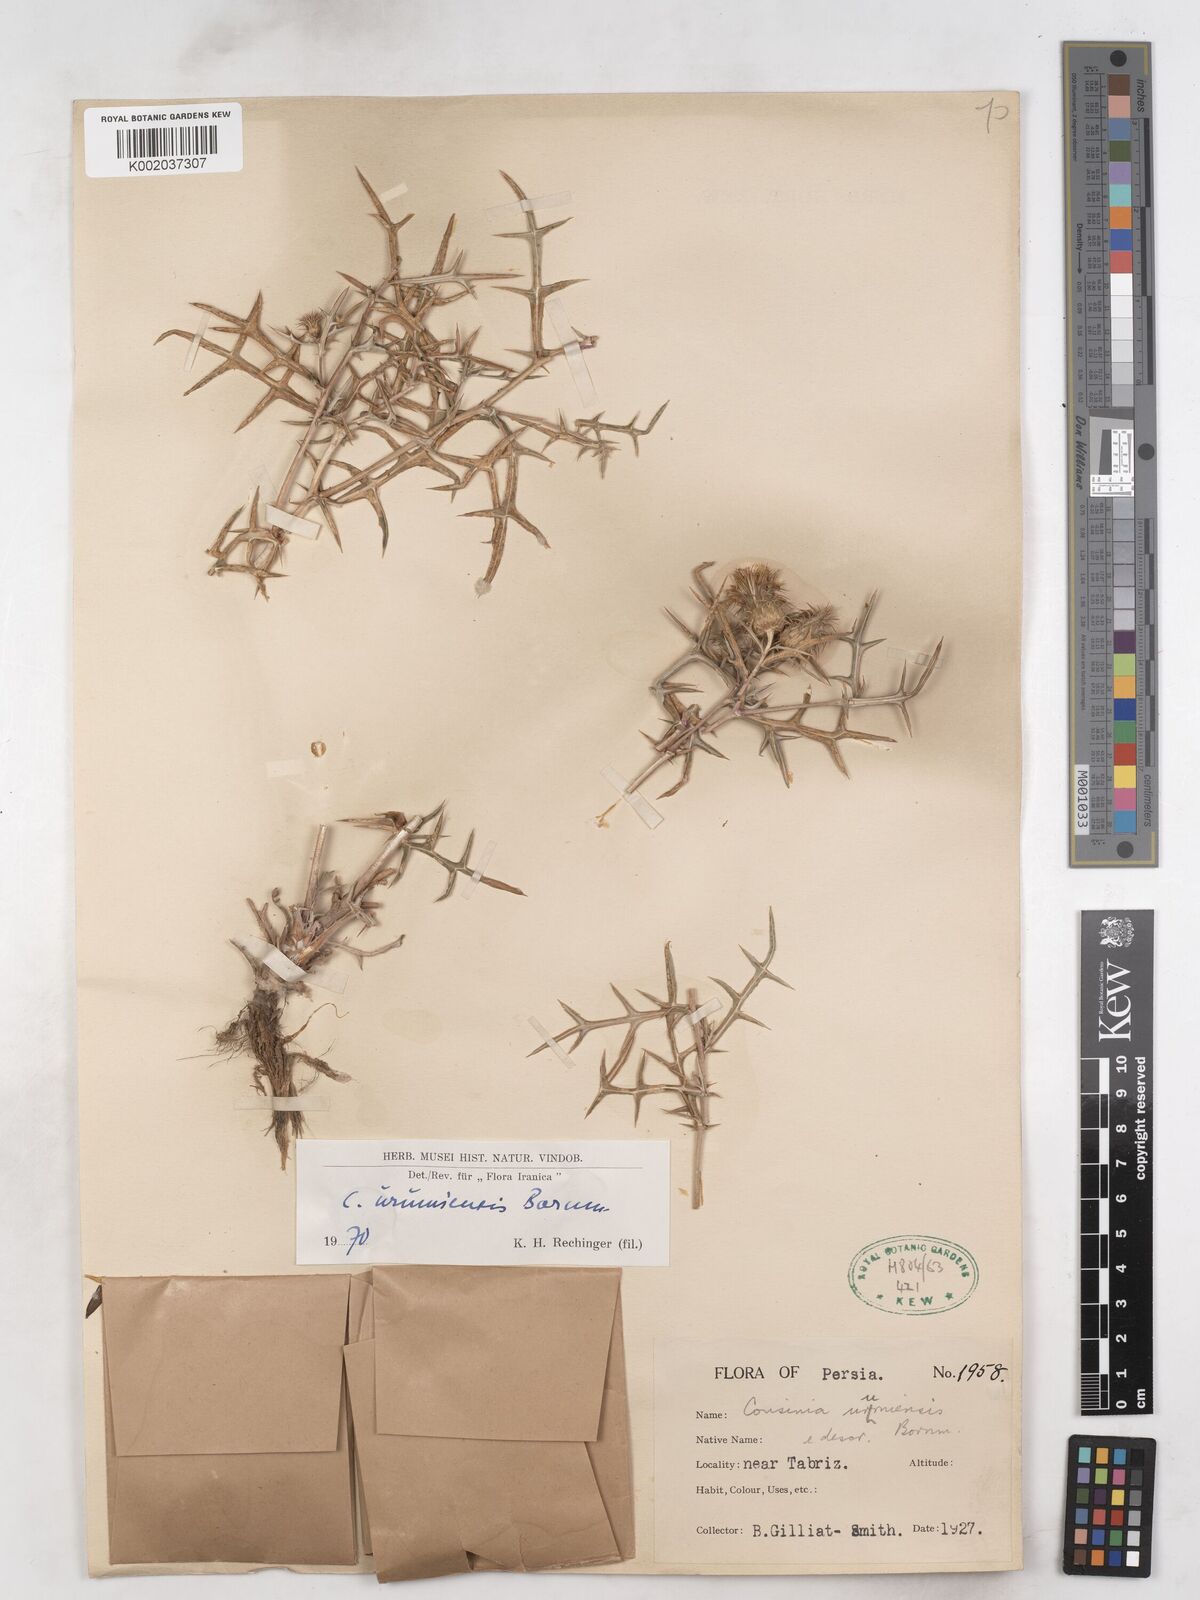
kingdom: Plantae
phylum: Tracheophyta
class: Magnoliopsida
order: Asterales
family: Asteraceae
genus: Cousinia
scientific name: Cousinia tenuifolia
